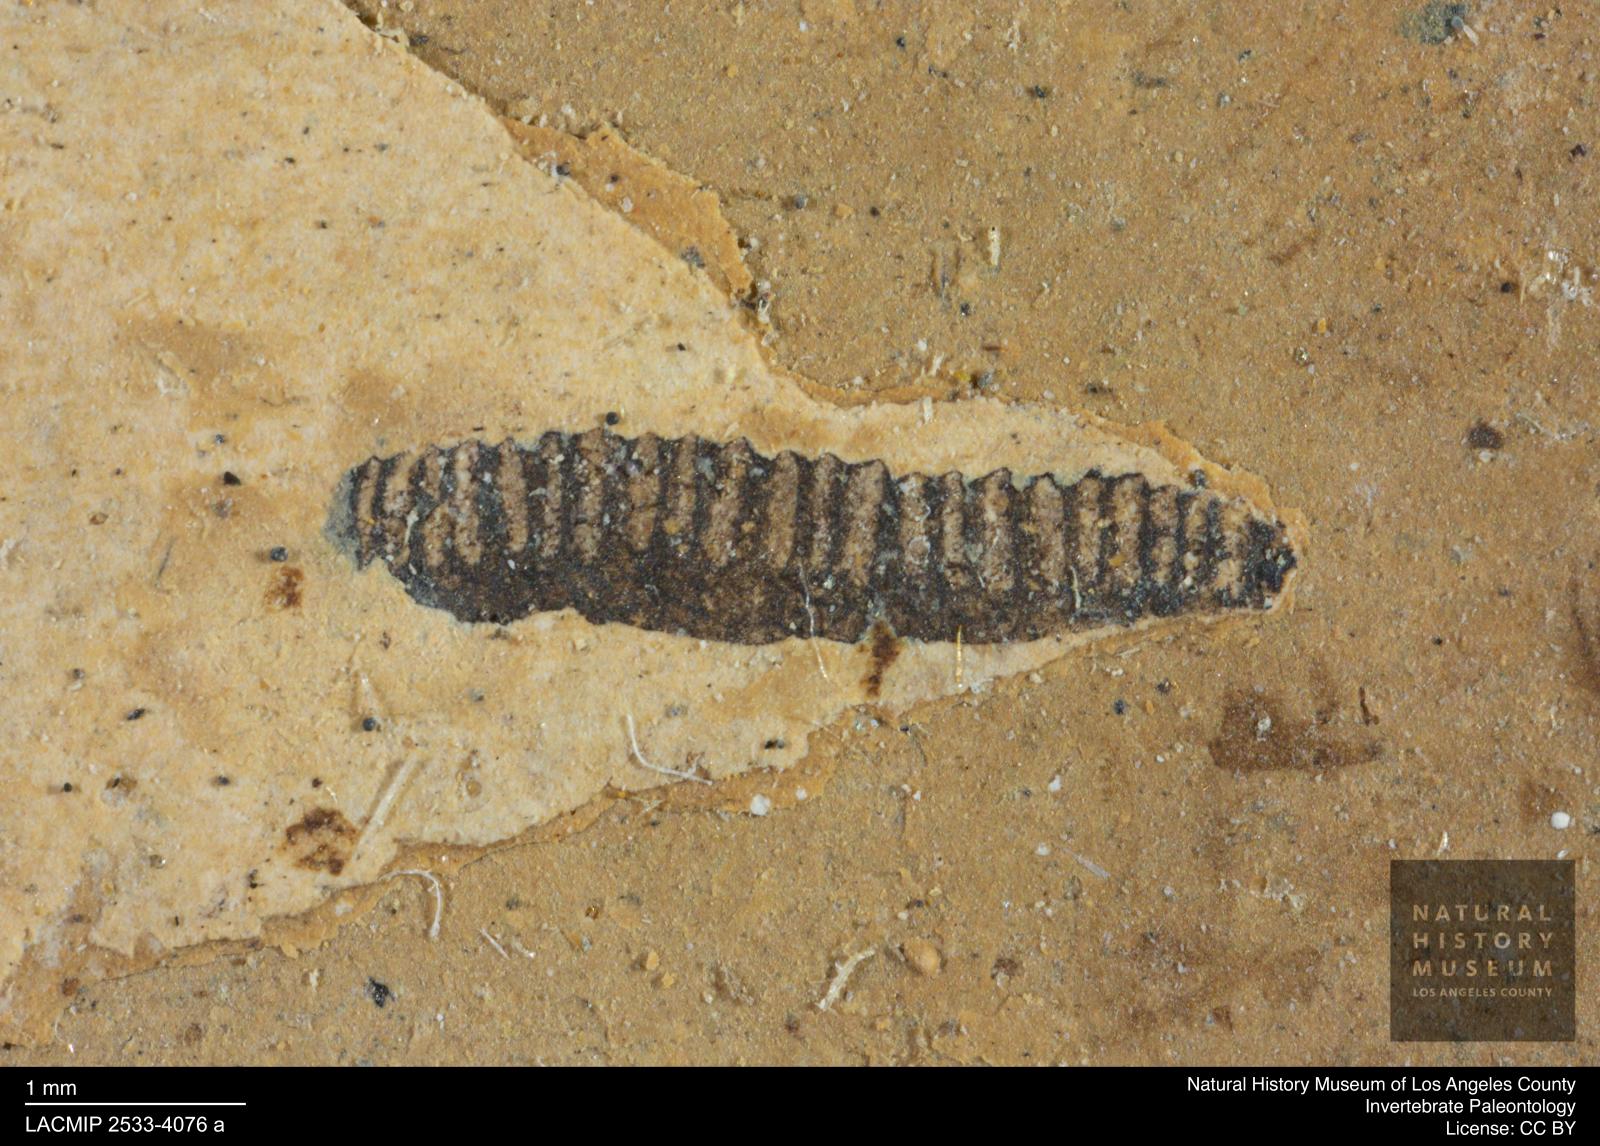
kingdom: Animalia
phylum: Arthropoda
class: Insecta
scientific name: Insecta
